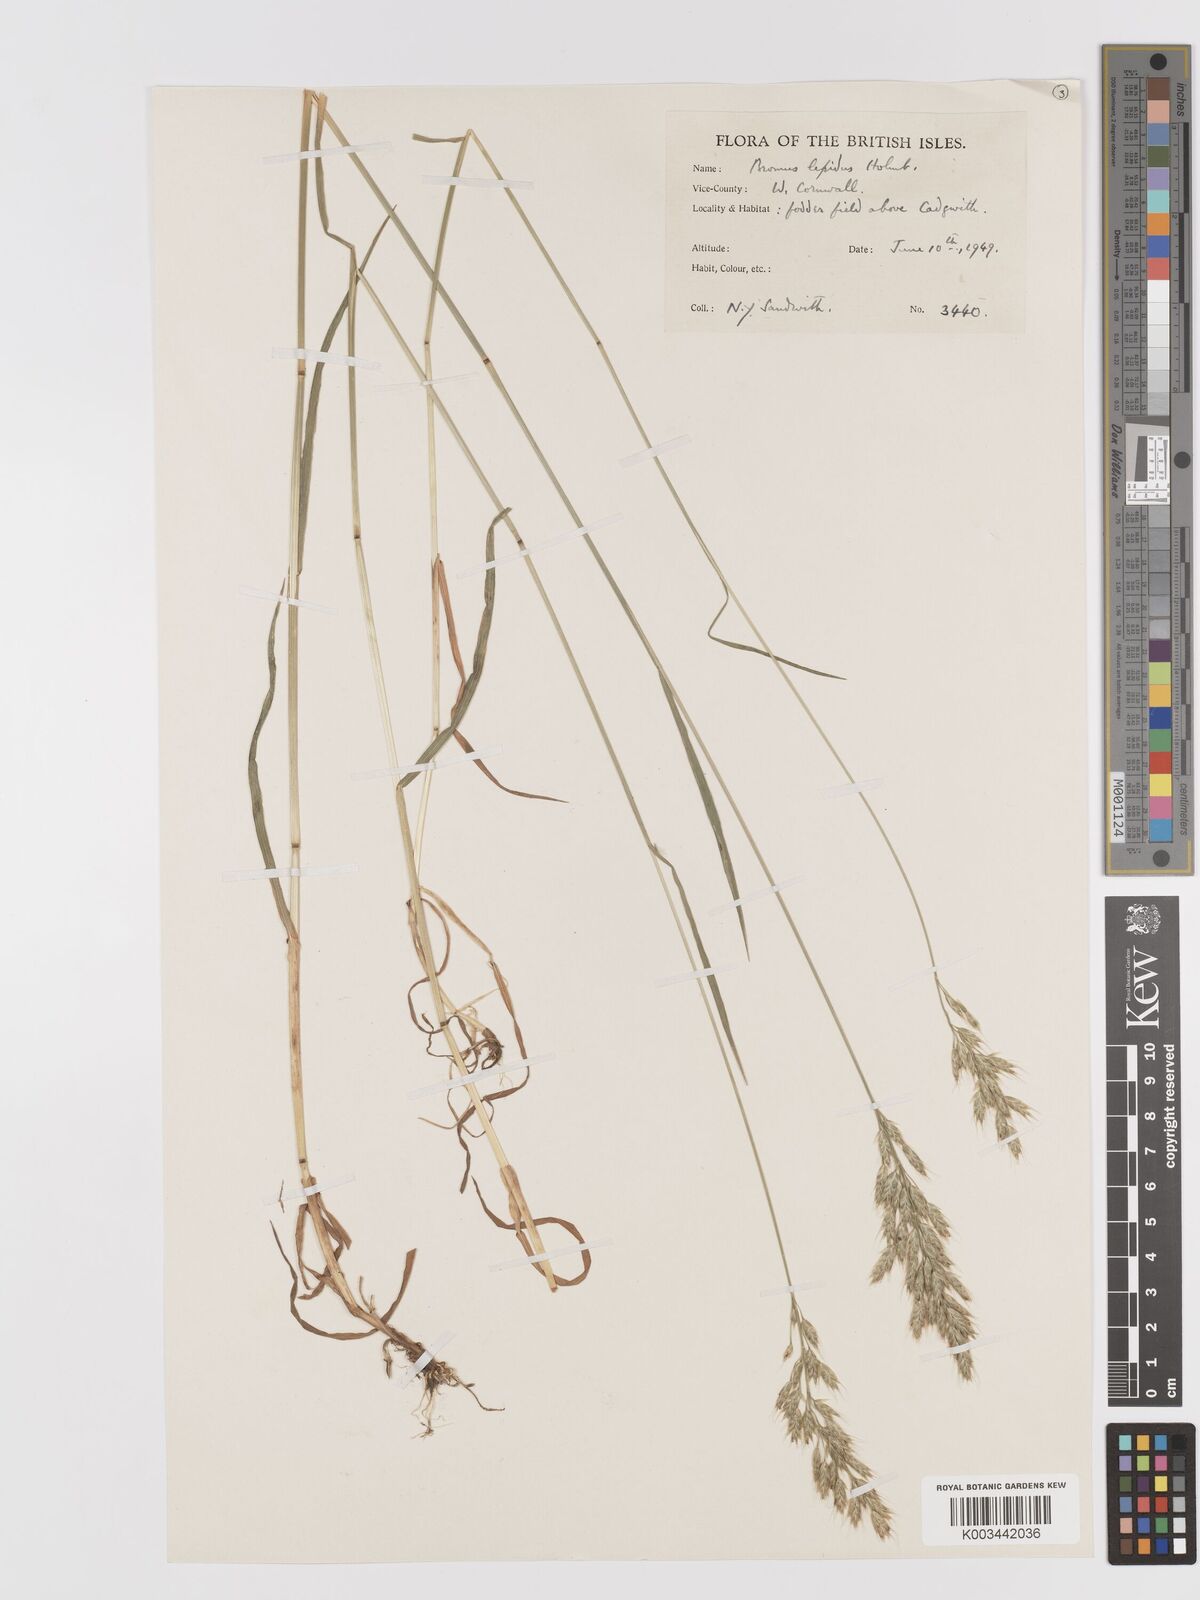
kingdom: Plantae
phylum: Tracheophyta
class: Liliopsida
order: Poales
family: Poaceae
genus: Bromus
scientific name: Bromus lepidus
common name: Slender soft-brome
